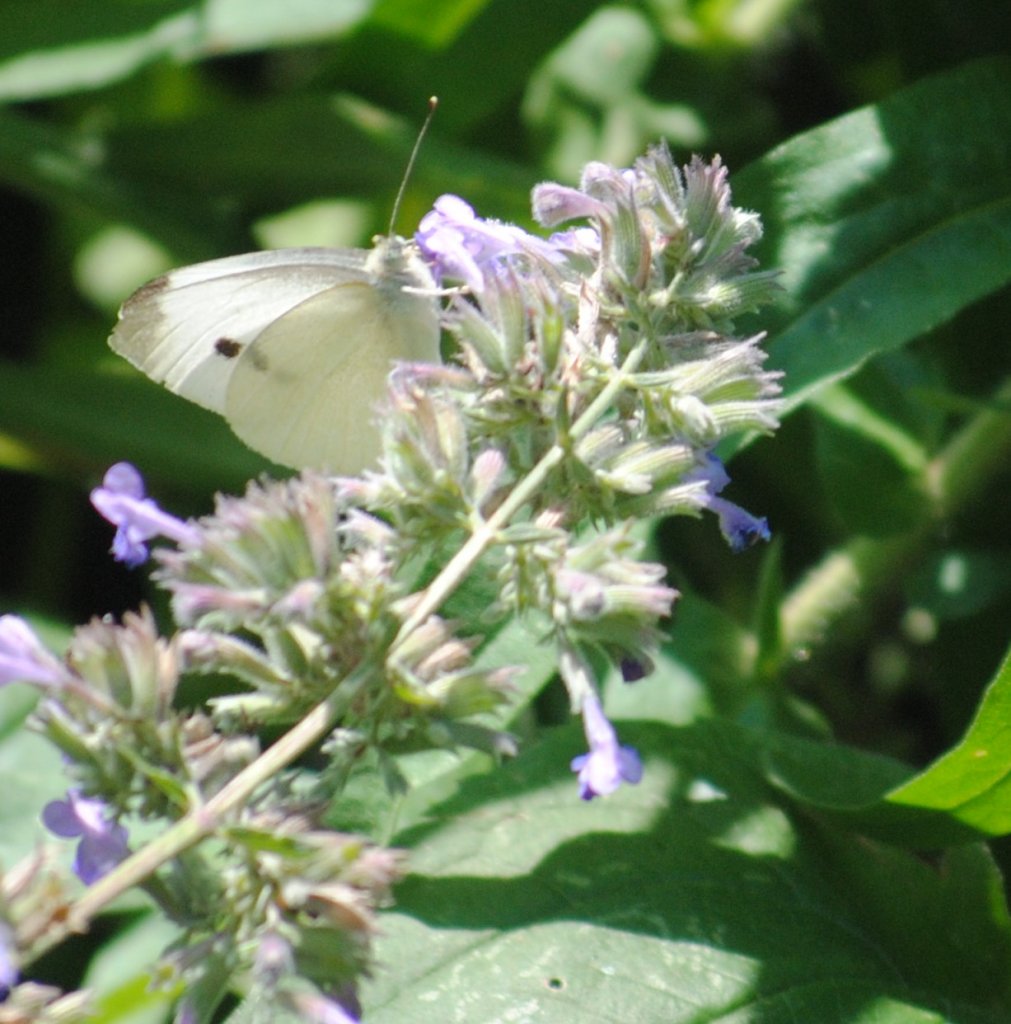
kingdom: Animalia
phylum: Arthropoda
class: Insecta
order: Lepidoptera
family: Pieridae
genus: Pieris
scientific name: Pieris rapae
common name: Cabbage White
